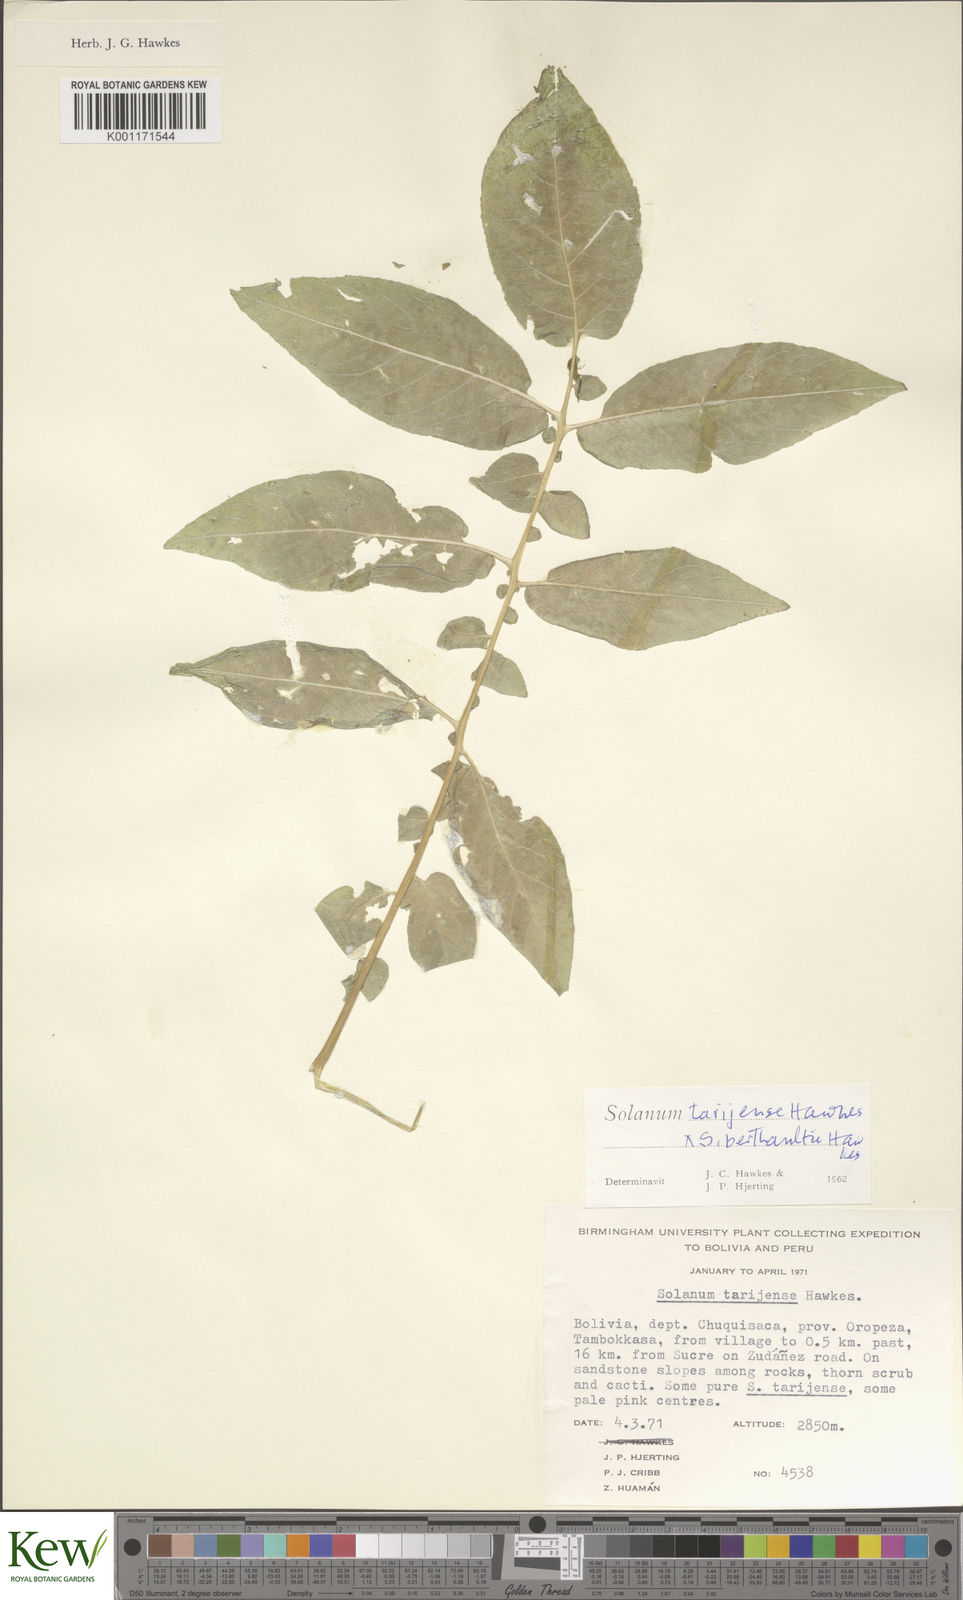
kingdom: Plantae
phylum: Tracheophyta
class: Magnoliopsida
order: Solanales
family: Solanaceae
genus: Solanum
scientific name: Solanum tarijense
